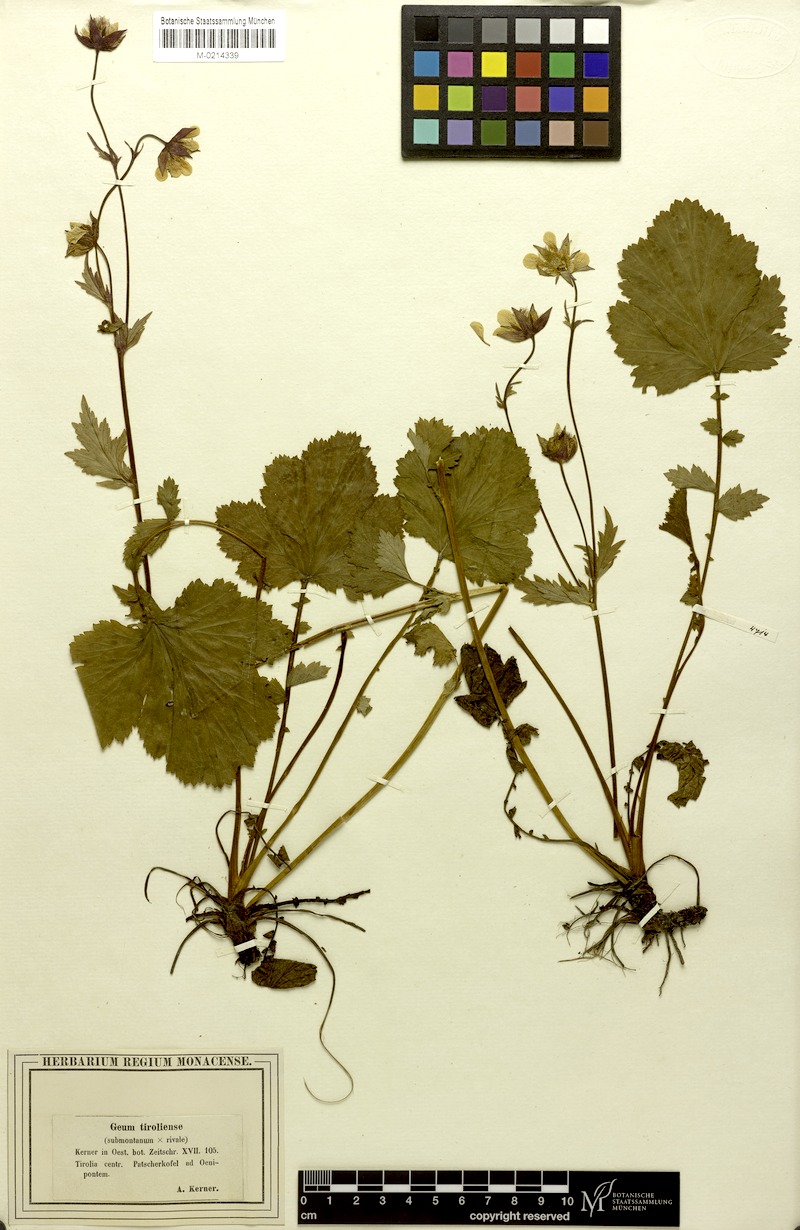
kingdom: Plantae
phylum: Tracheophyta
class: Magnoliopsida
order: Rosales
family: Rosaceae
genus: Geum
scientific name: Geum sudeticum
